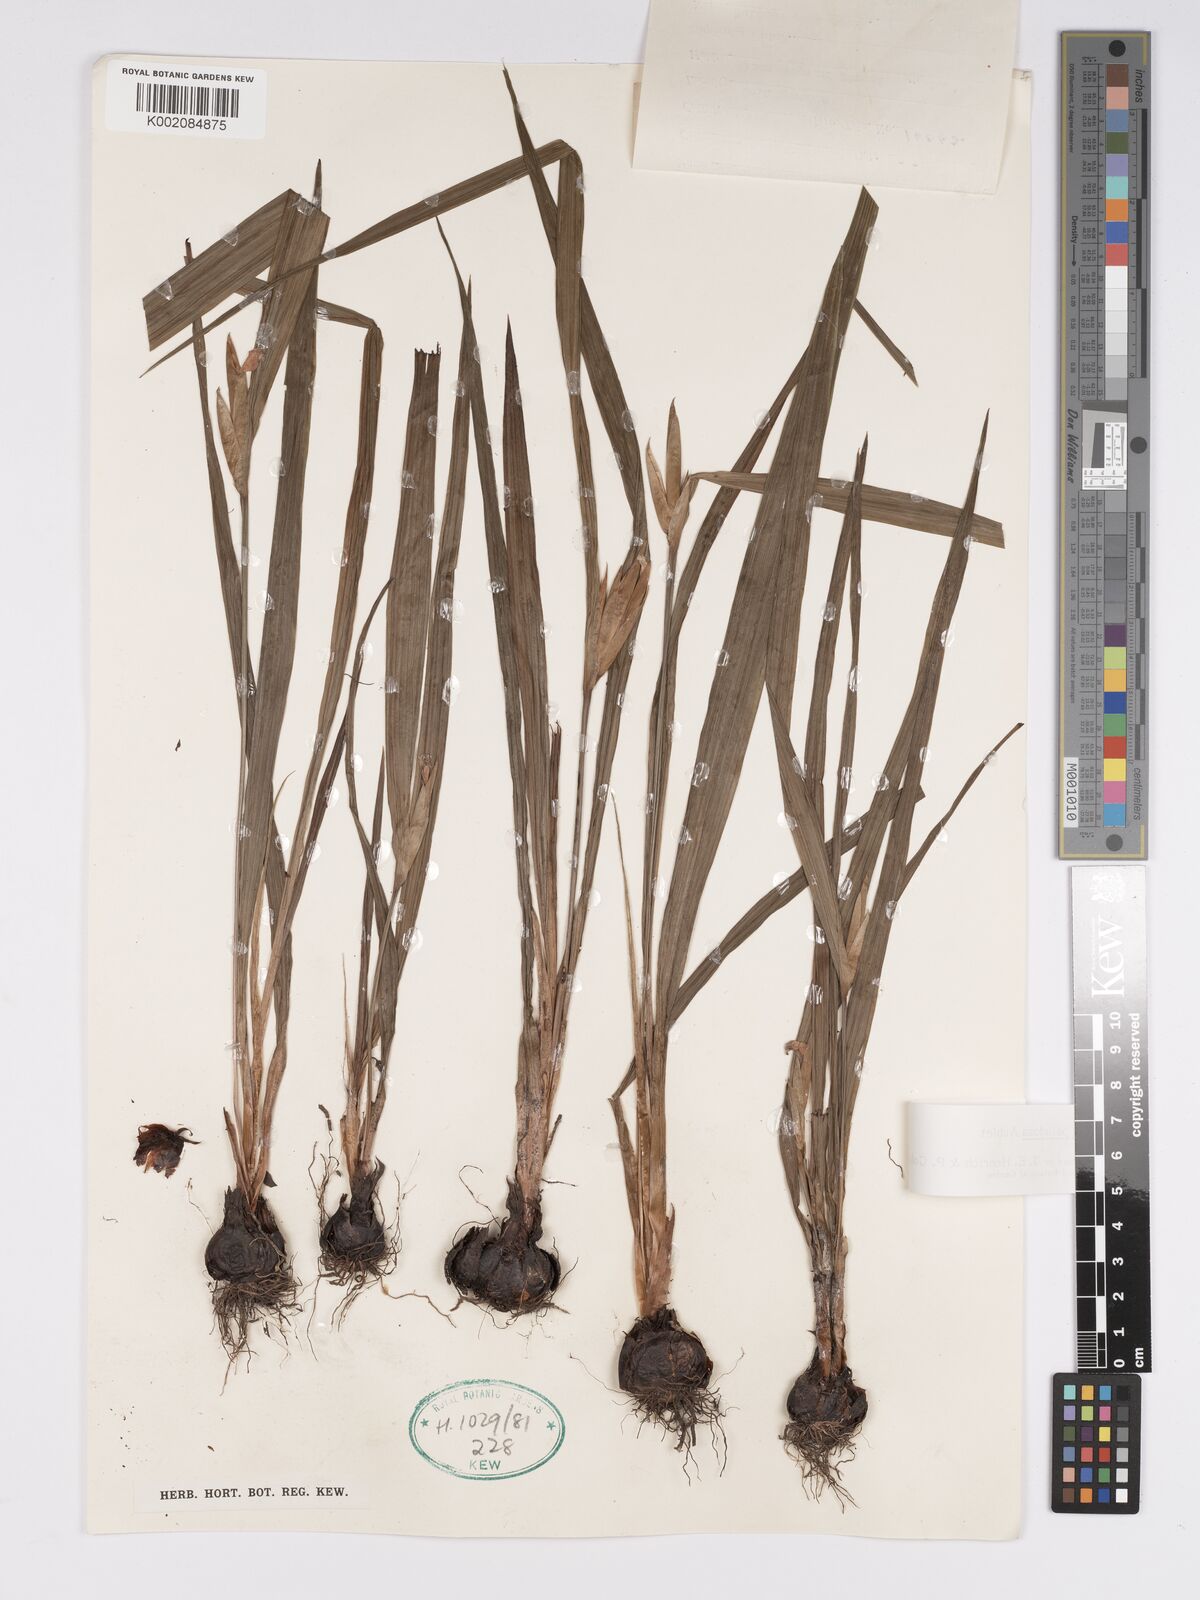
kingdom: Plantae
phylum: Tracheophyta
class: Liliopsida
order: Asparagales
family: Iridaceae
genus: Cipura
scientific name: Cipura paludosa
